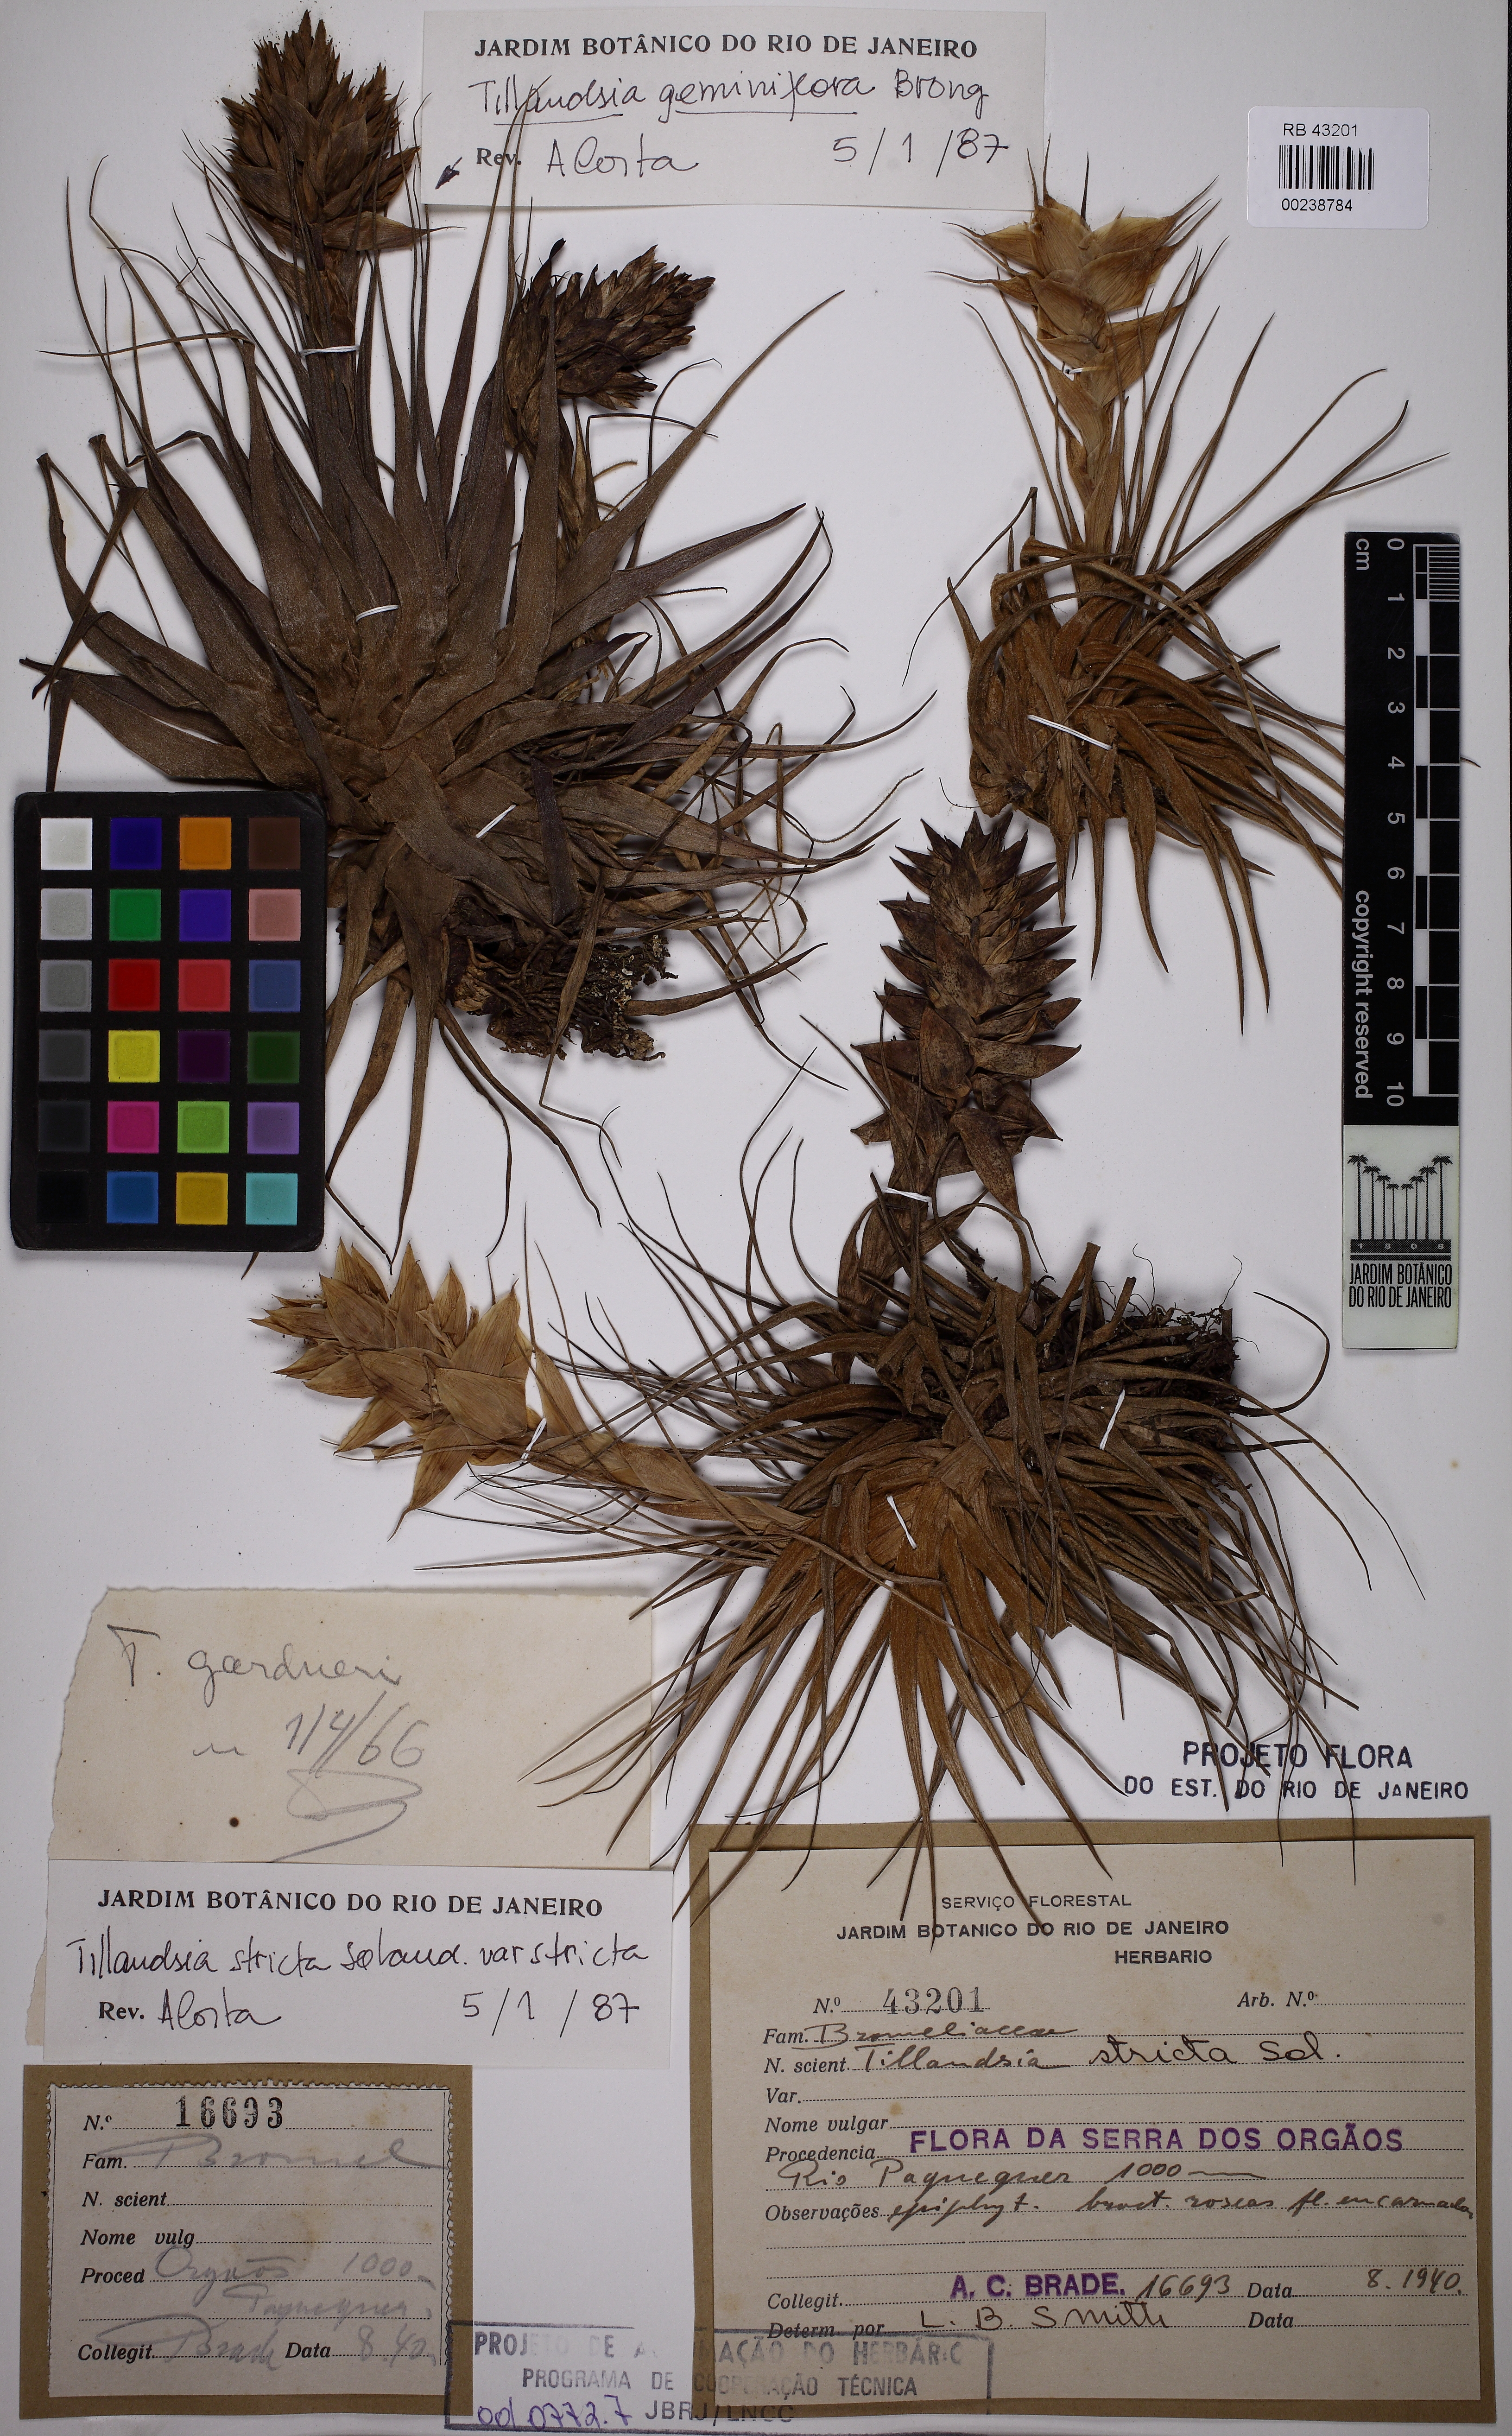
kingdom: Plantae
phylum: Tracheophyta
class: Liliopsida
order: Poales
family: Bromeliaceae
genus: Tillandsia
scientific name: Tillandsia stricta
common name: Airplant
